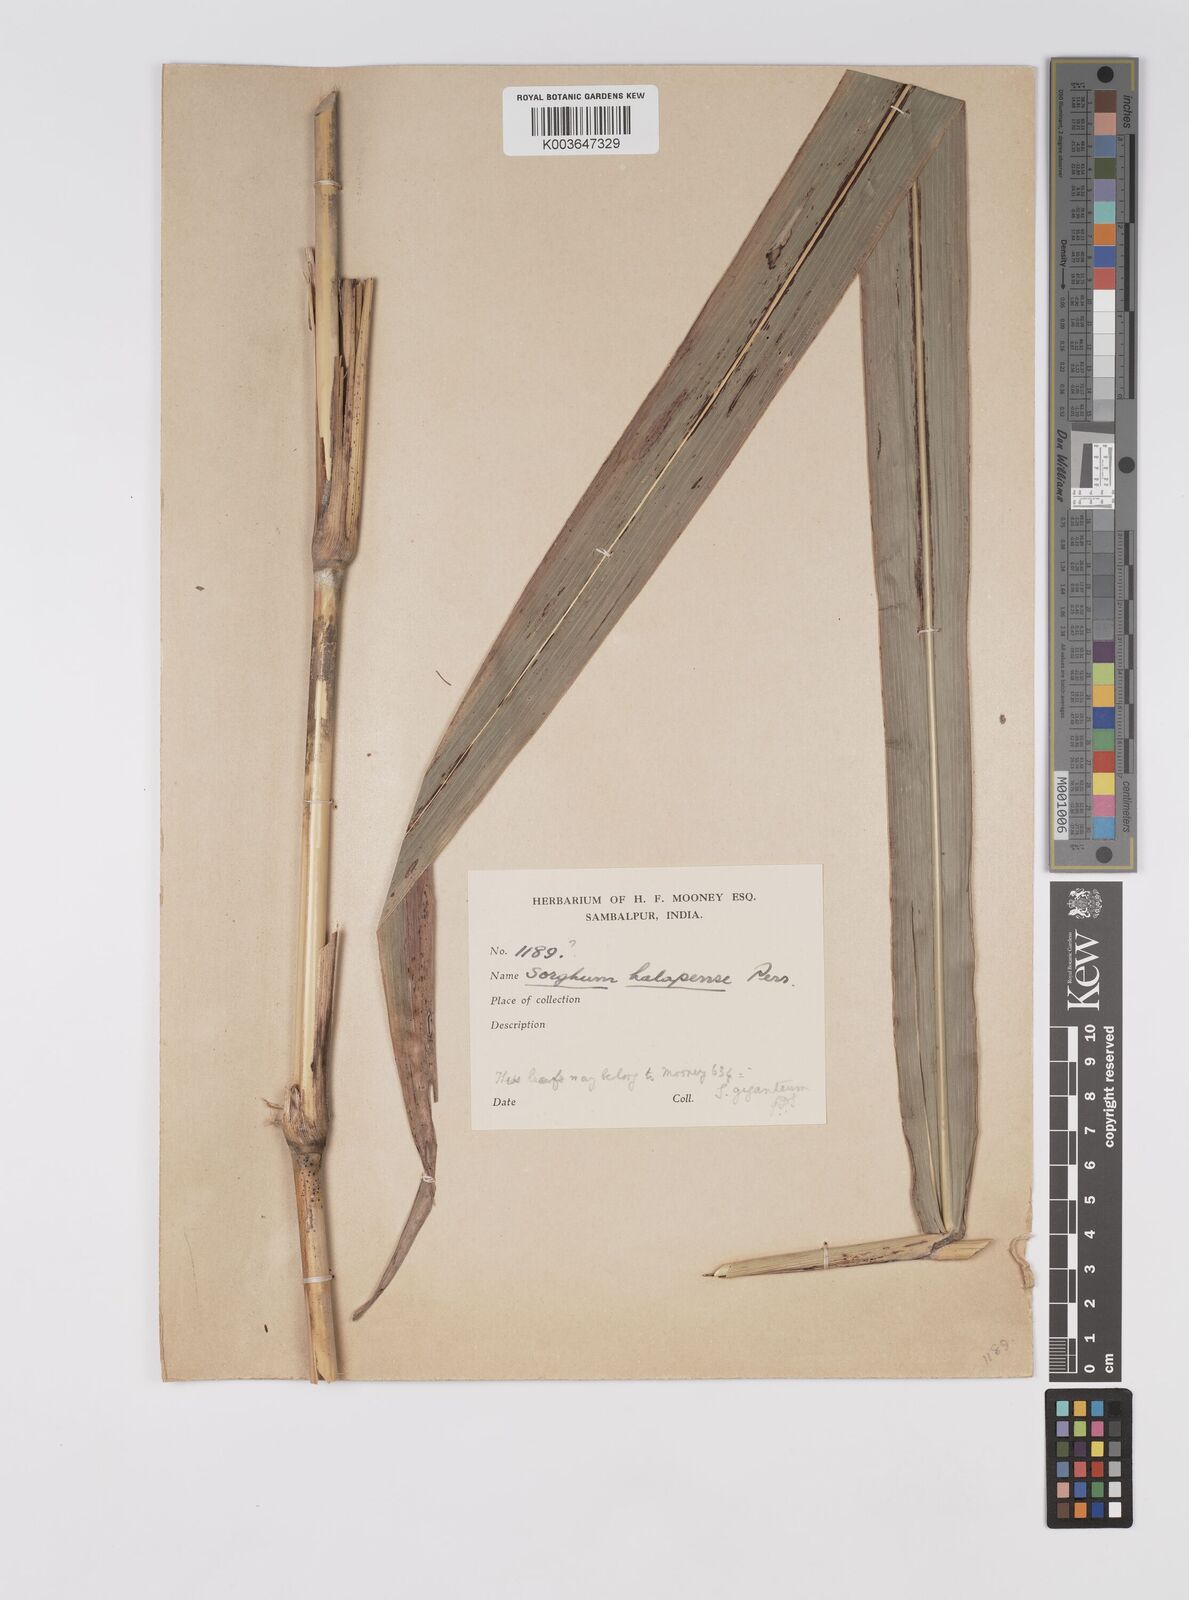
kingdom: Plantae
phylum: Tracheophyta
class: Liliopsida
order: Poales
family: Poaceae
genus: Sorghum
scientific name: Sorghum controversum
